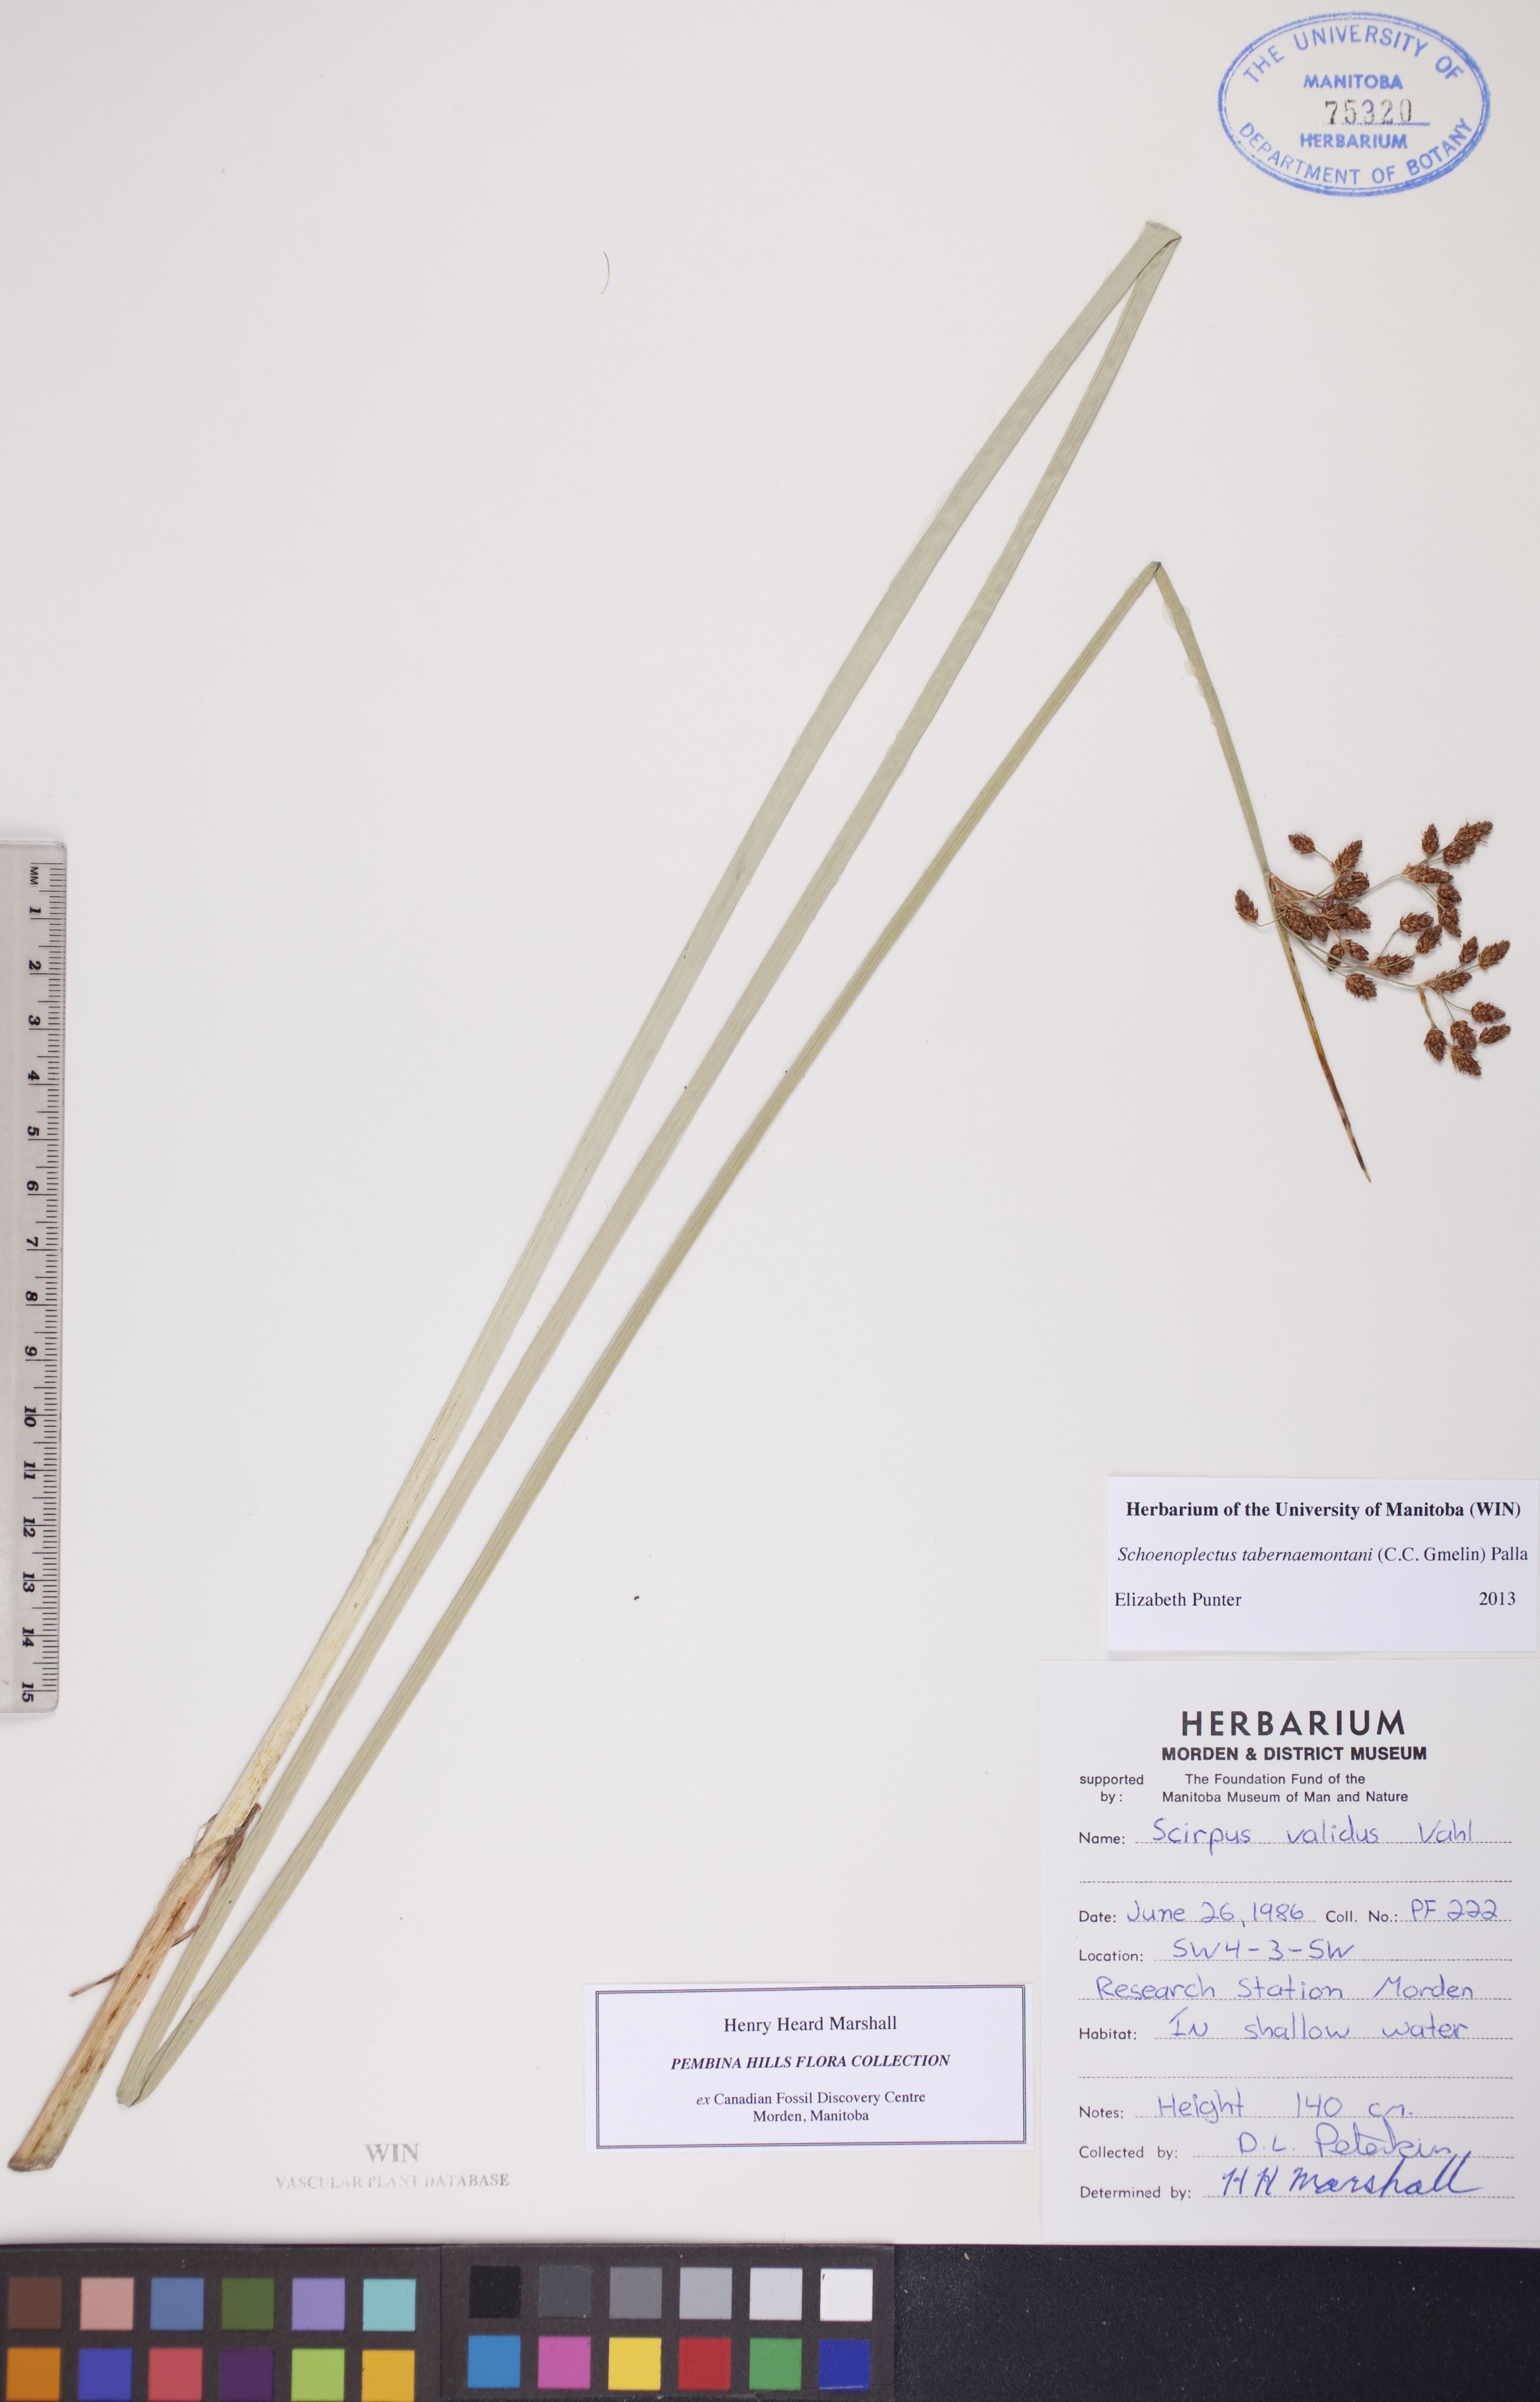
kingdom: Plantae
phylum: Tracheophyta
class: Liliopsida
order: Poales
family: Cyperaceae
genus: Schoenoplectus
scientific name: Schoenoplectus tabernaemontani
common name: Grey club-rush
